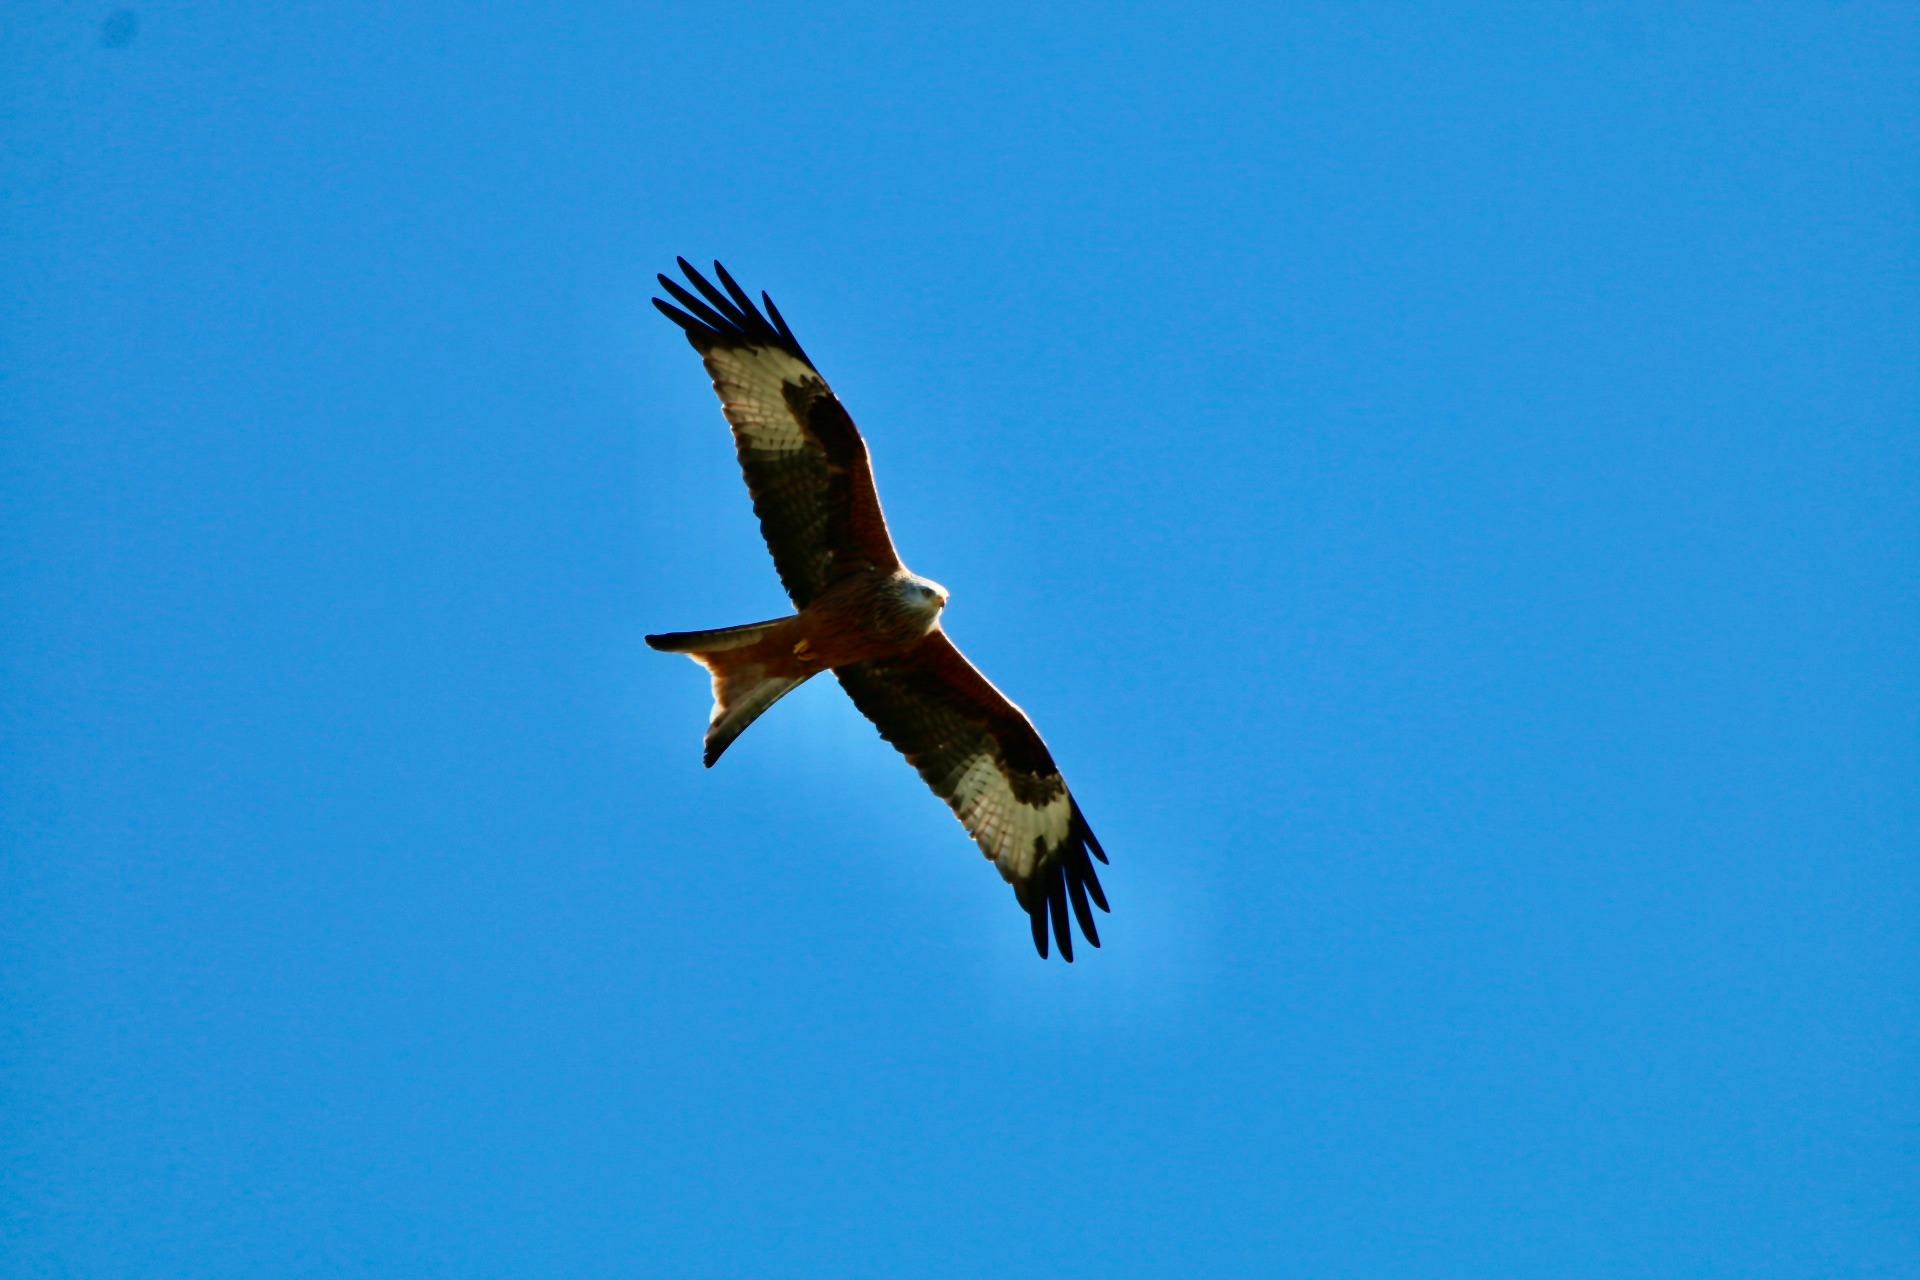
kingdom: Animalia
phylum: Chordata
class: Aves
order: Accipitriformes
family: Accipitridae
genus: Milvus
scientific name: Milvus milvus
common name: Rød glente
